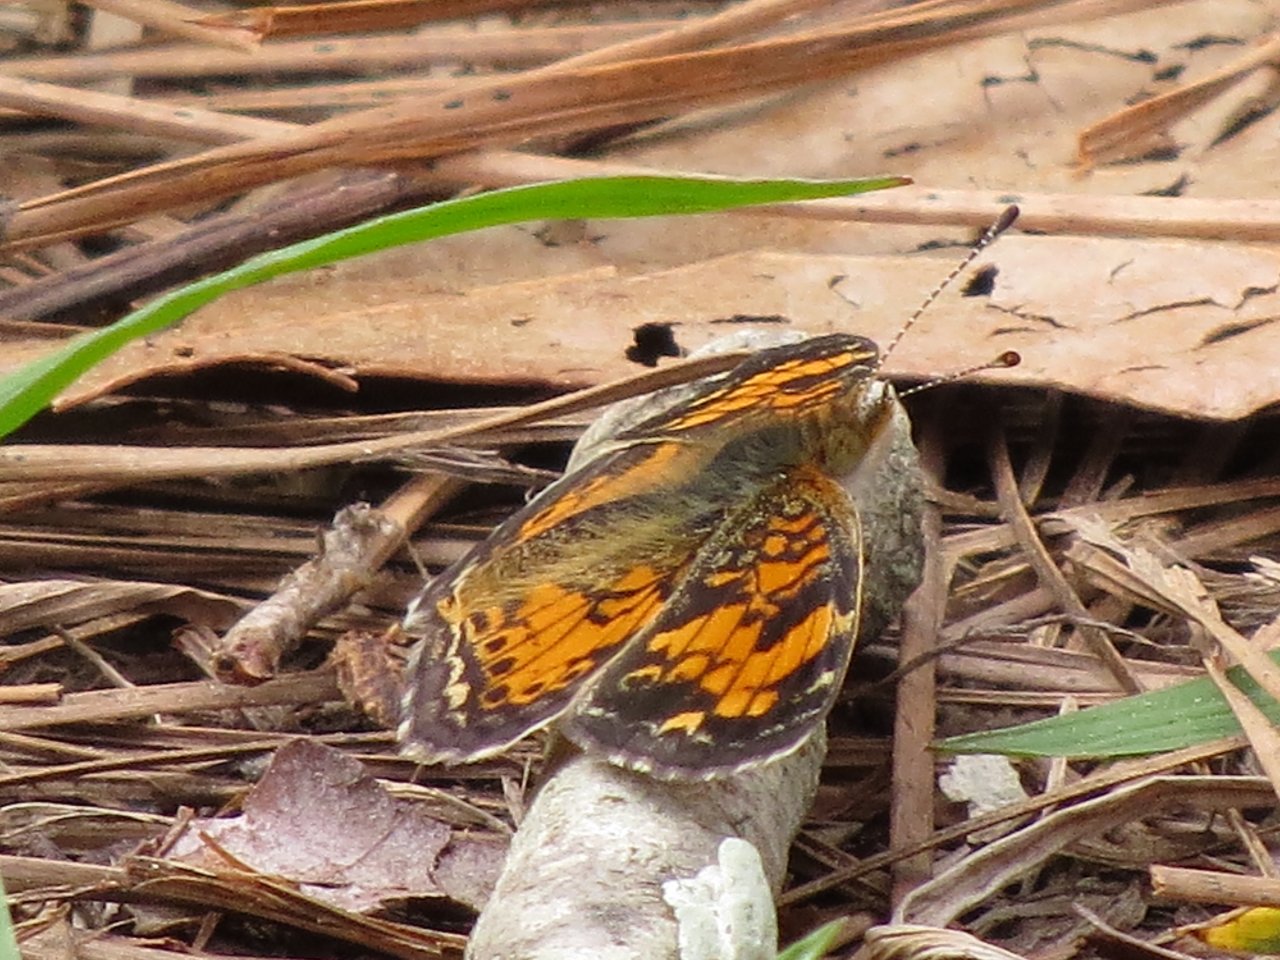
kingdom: Animalia
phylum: Arthropoda
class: Insecta
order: Lepidoptera
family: Nymphalidae
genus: Phyciodes
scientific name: Phyciodes tharos
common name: Pearl Crescent
